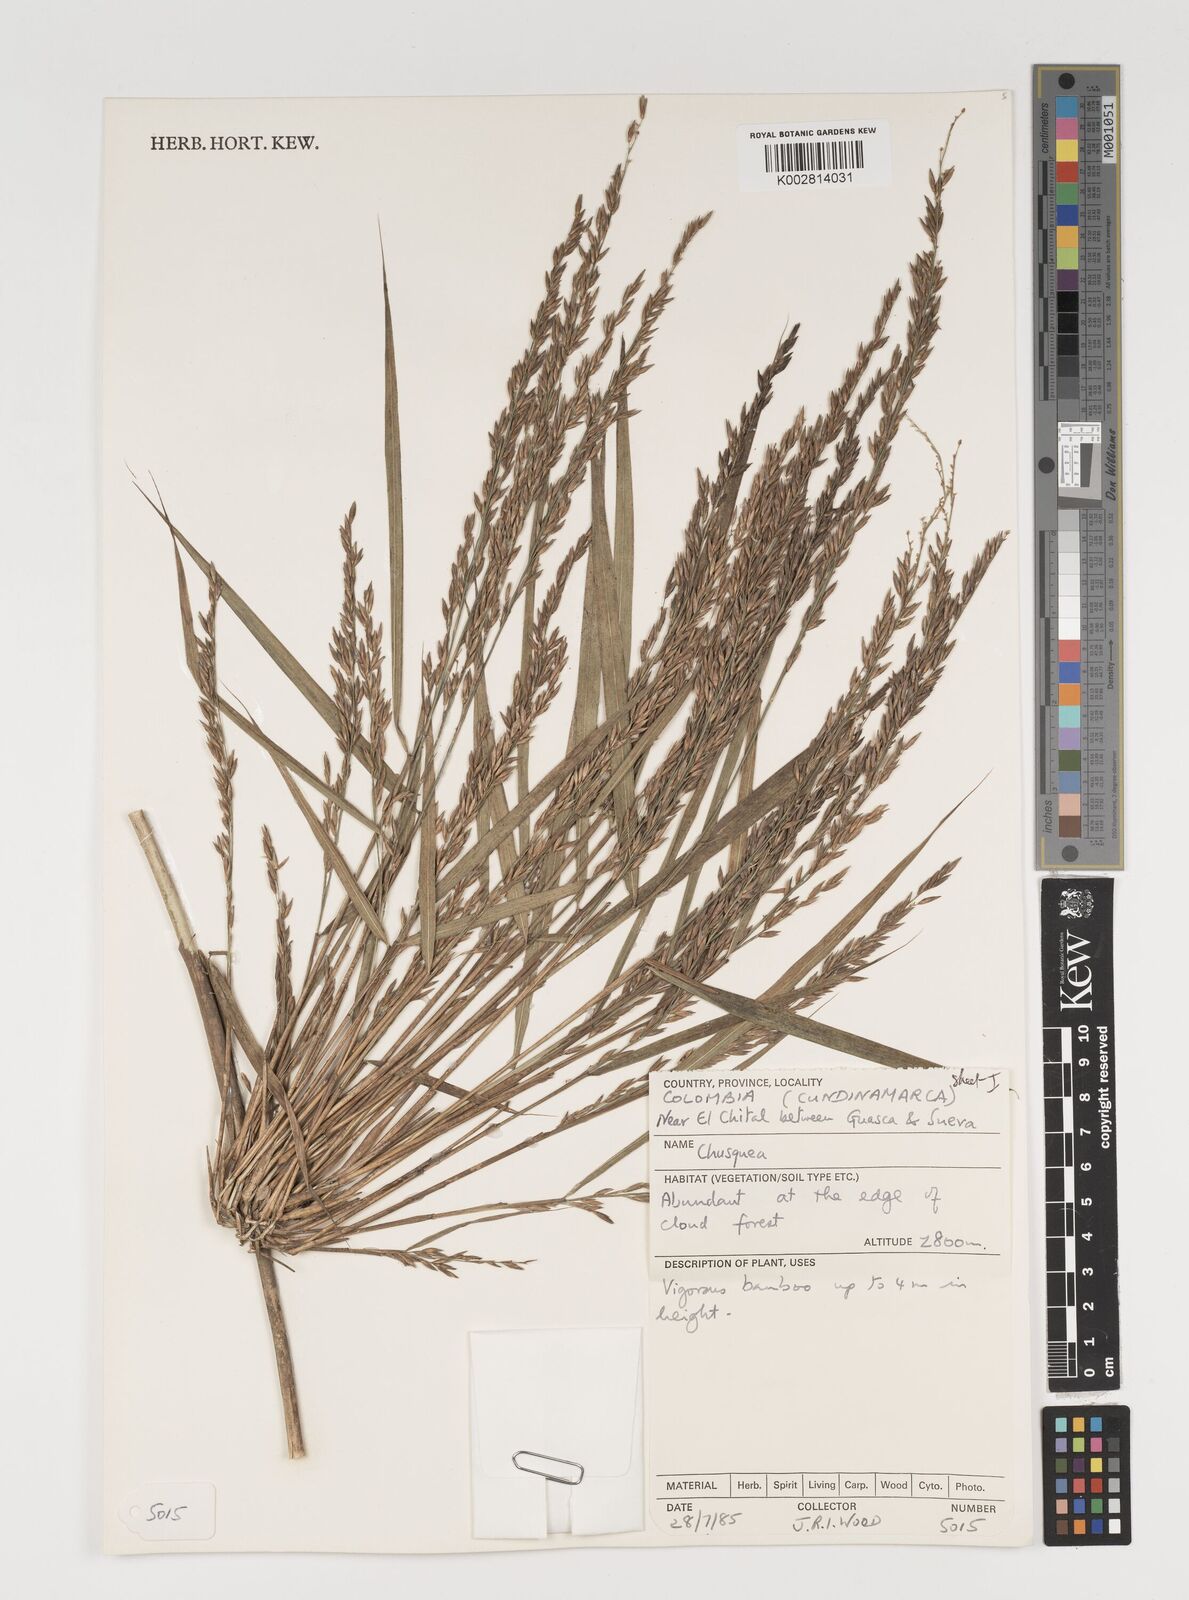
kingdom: Plantae
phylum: Tracheophyta
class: Liliopsida
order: Poales
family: Poaceae
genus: Chusquea
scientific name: Chusquea
